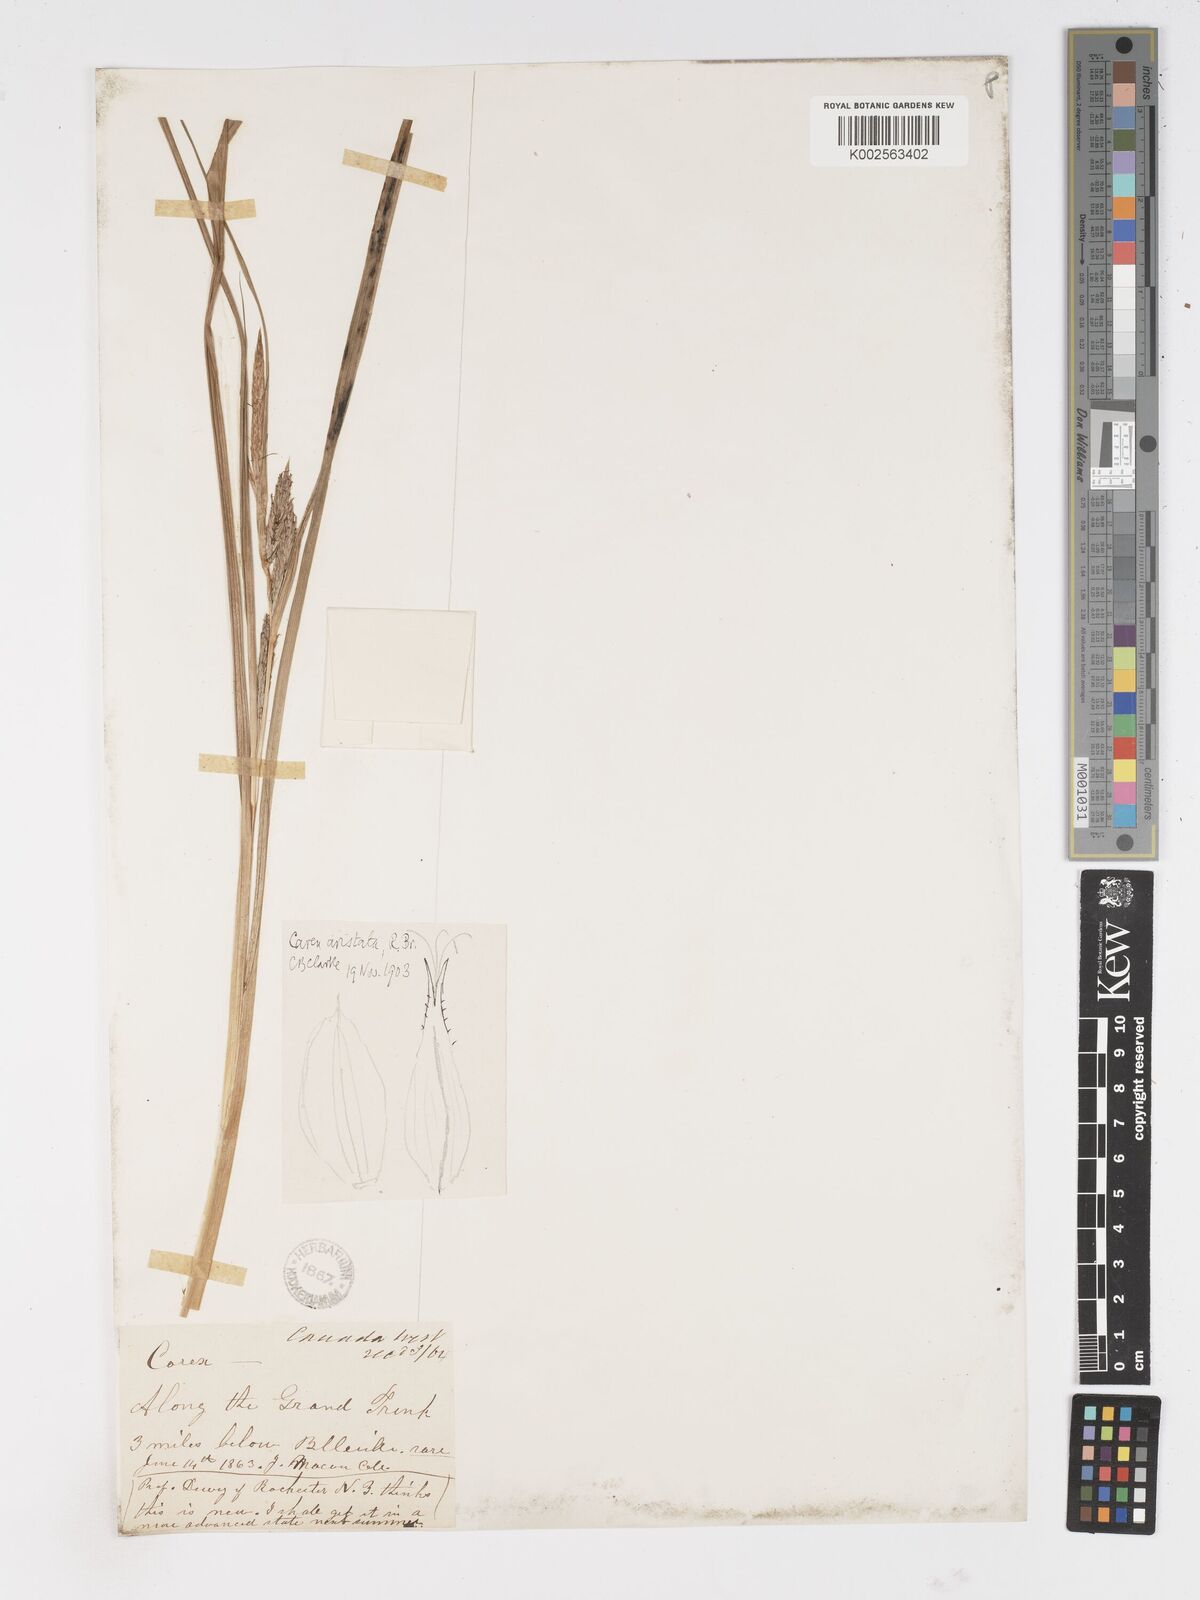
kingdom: Plantae
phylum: Tracheophyta
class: Liliopsida
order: Poales
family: Cyperaceae
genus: Carex
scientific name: Carex atherodes
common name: Wheat sedge
